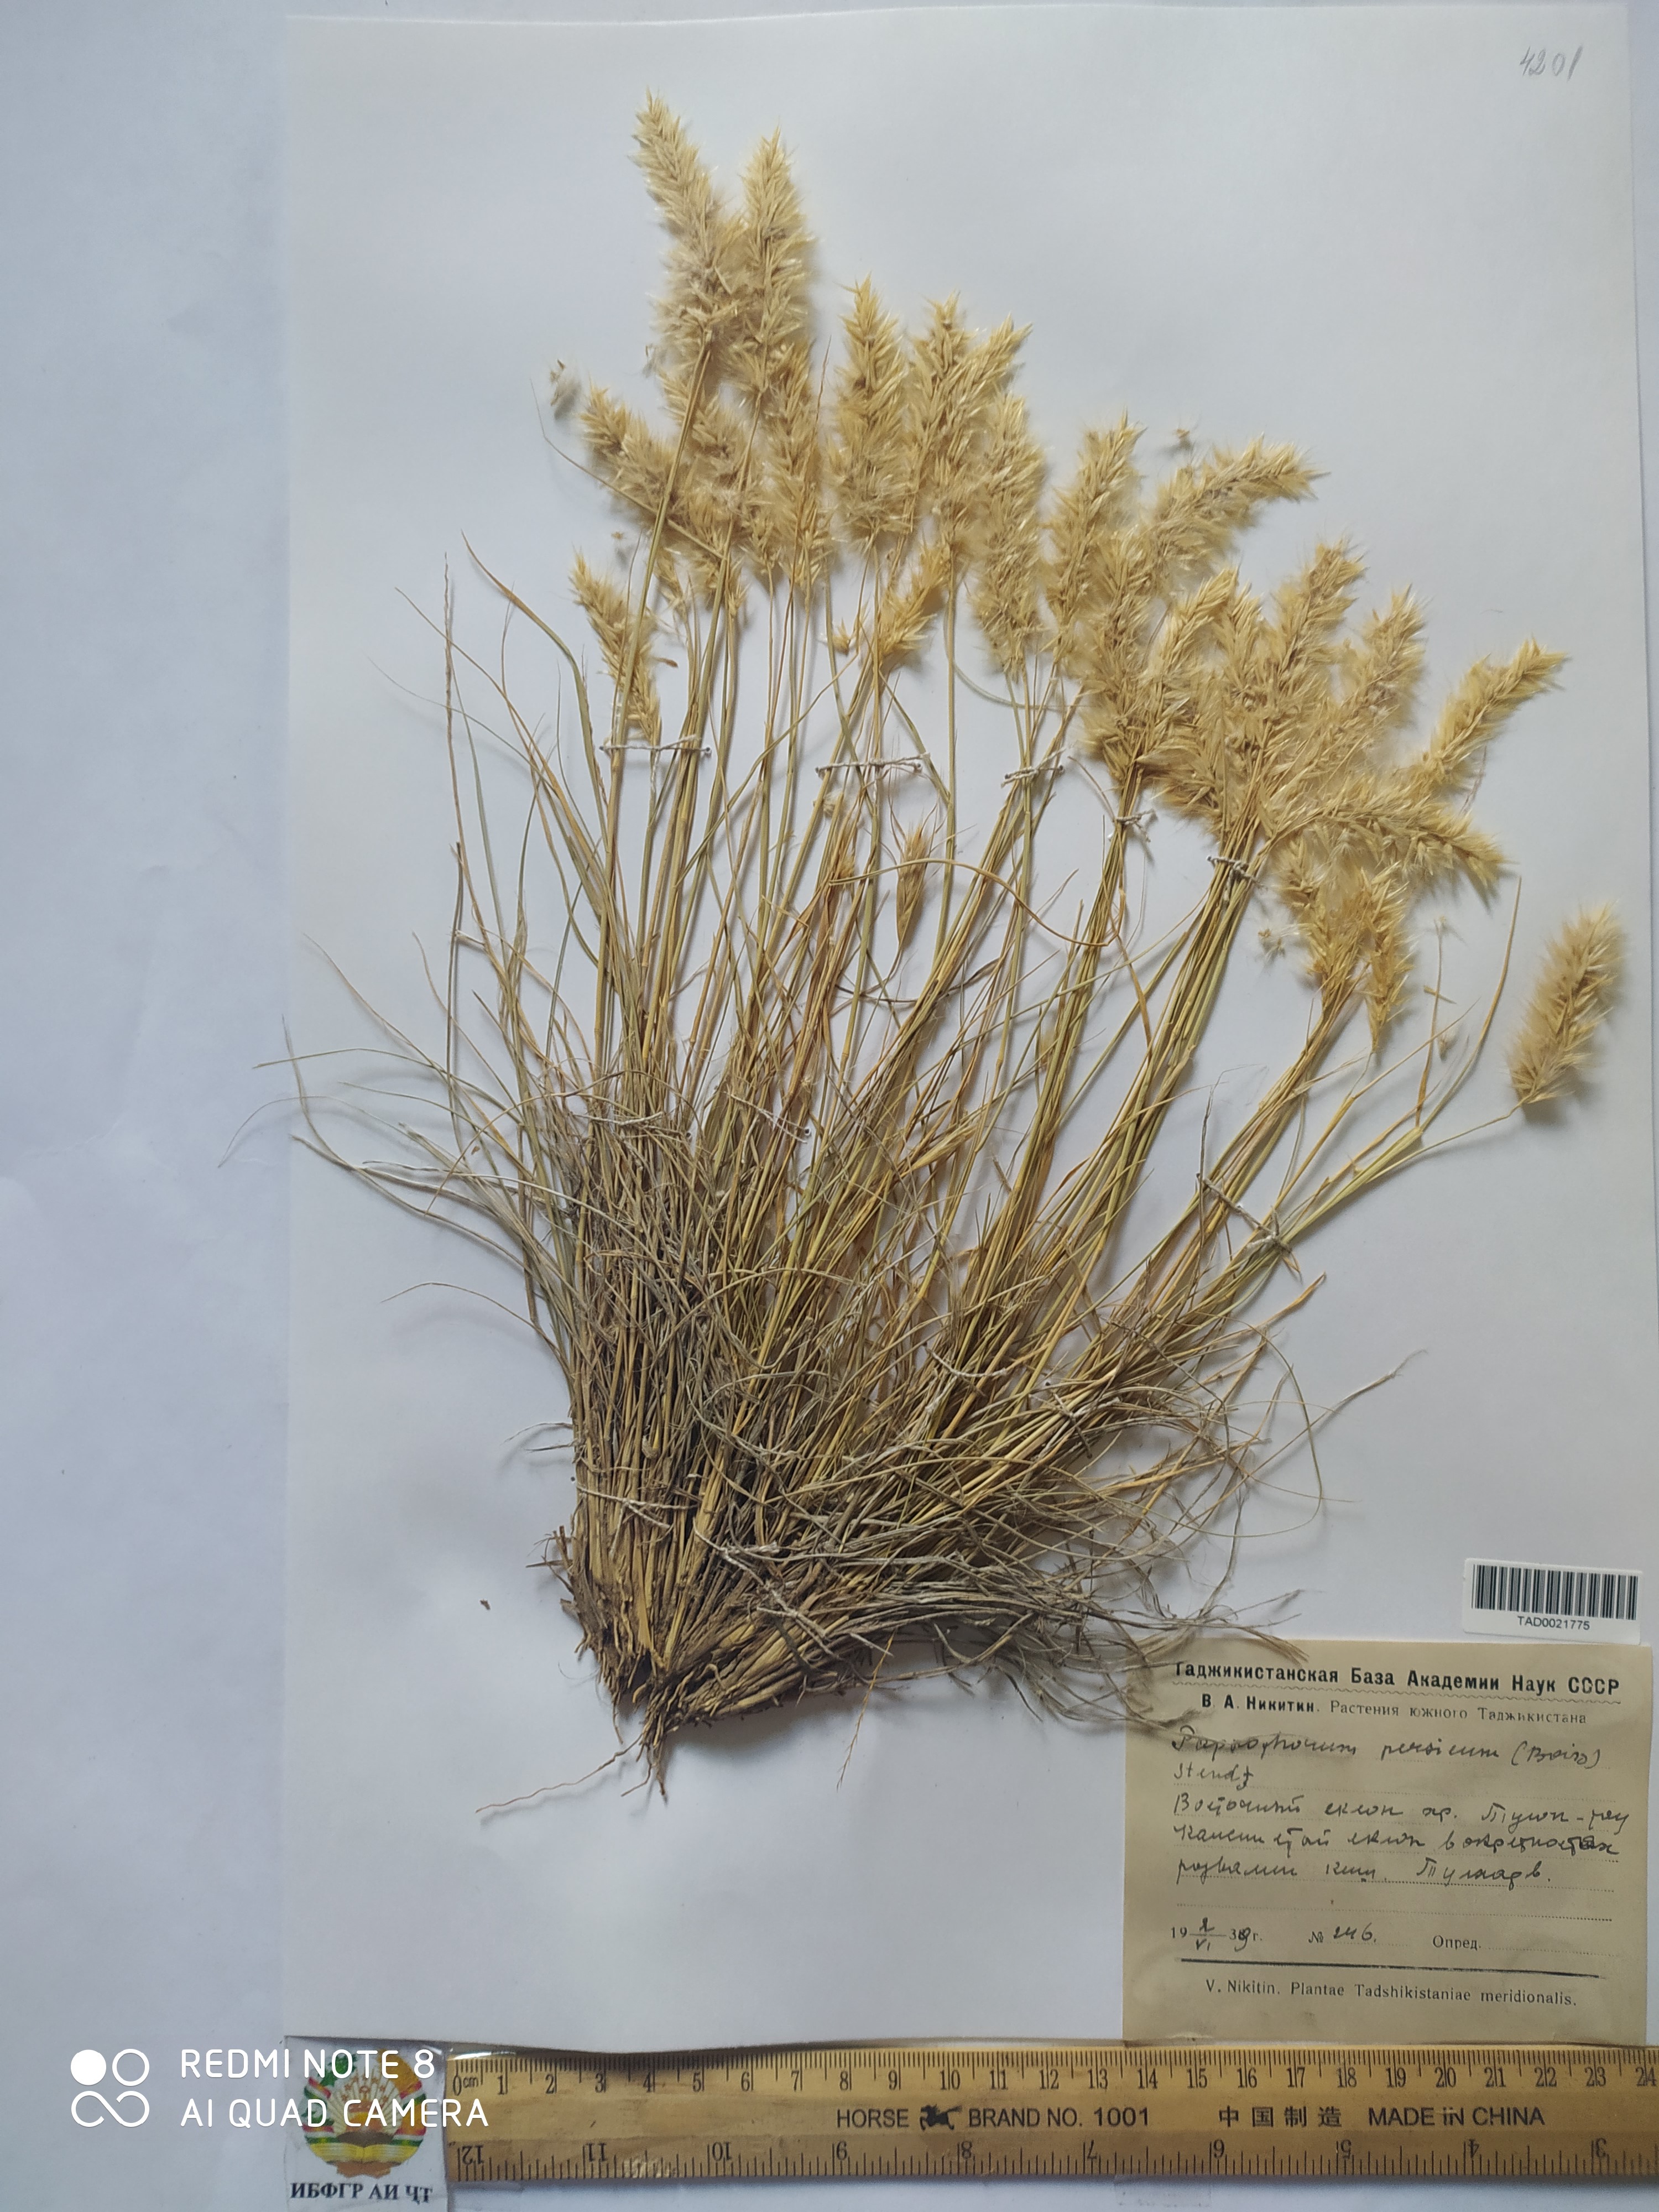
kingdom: Plantae
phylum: Tracheophyta
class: Liliopsida
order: Poales
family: Poaceae
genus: Enneapogon
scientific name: Enneapogon persicus
